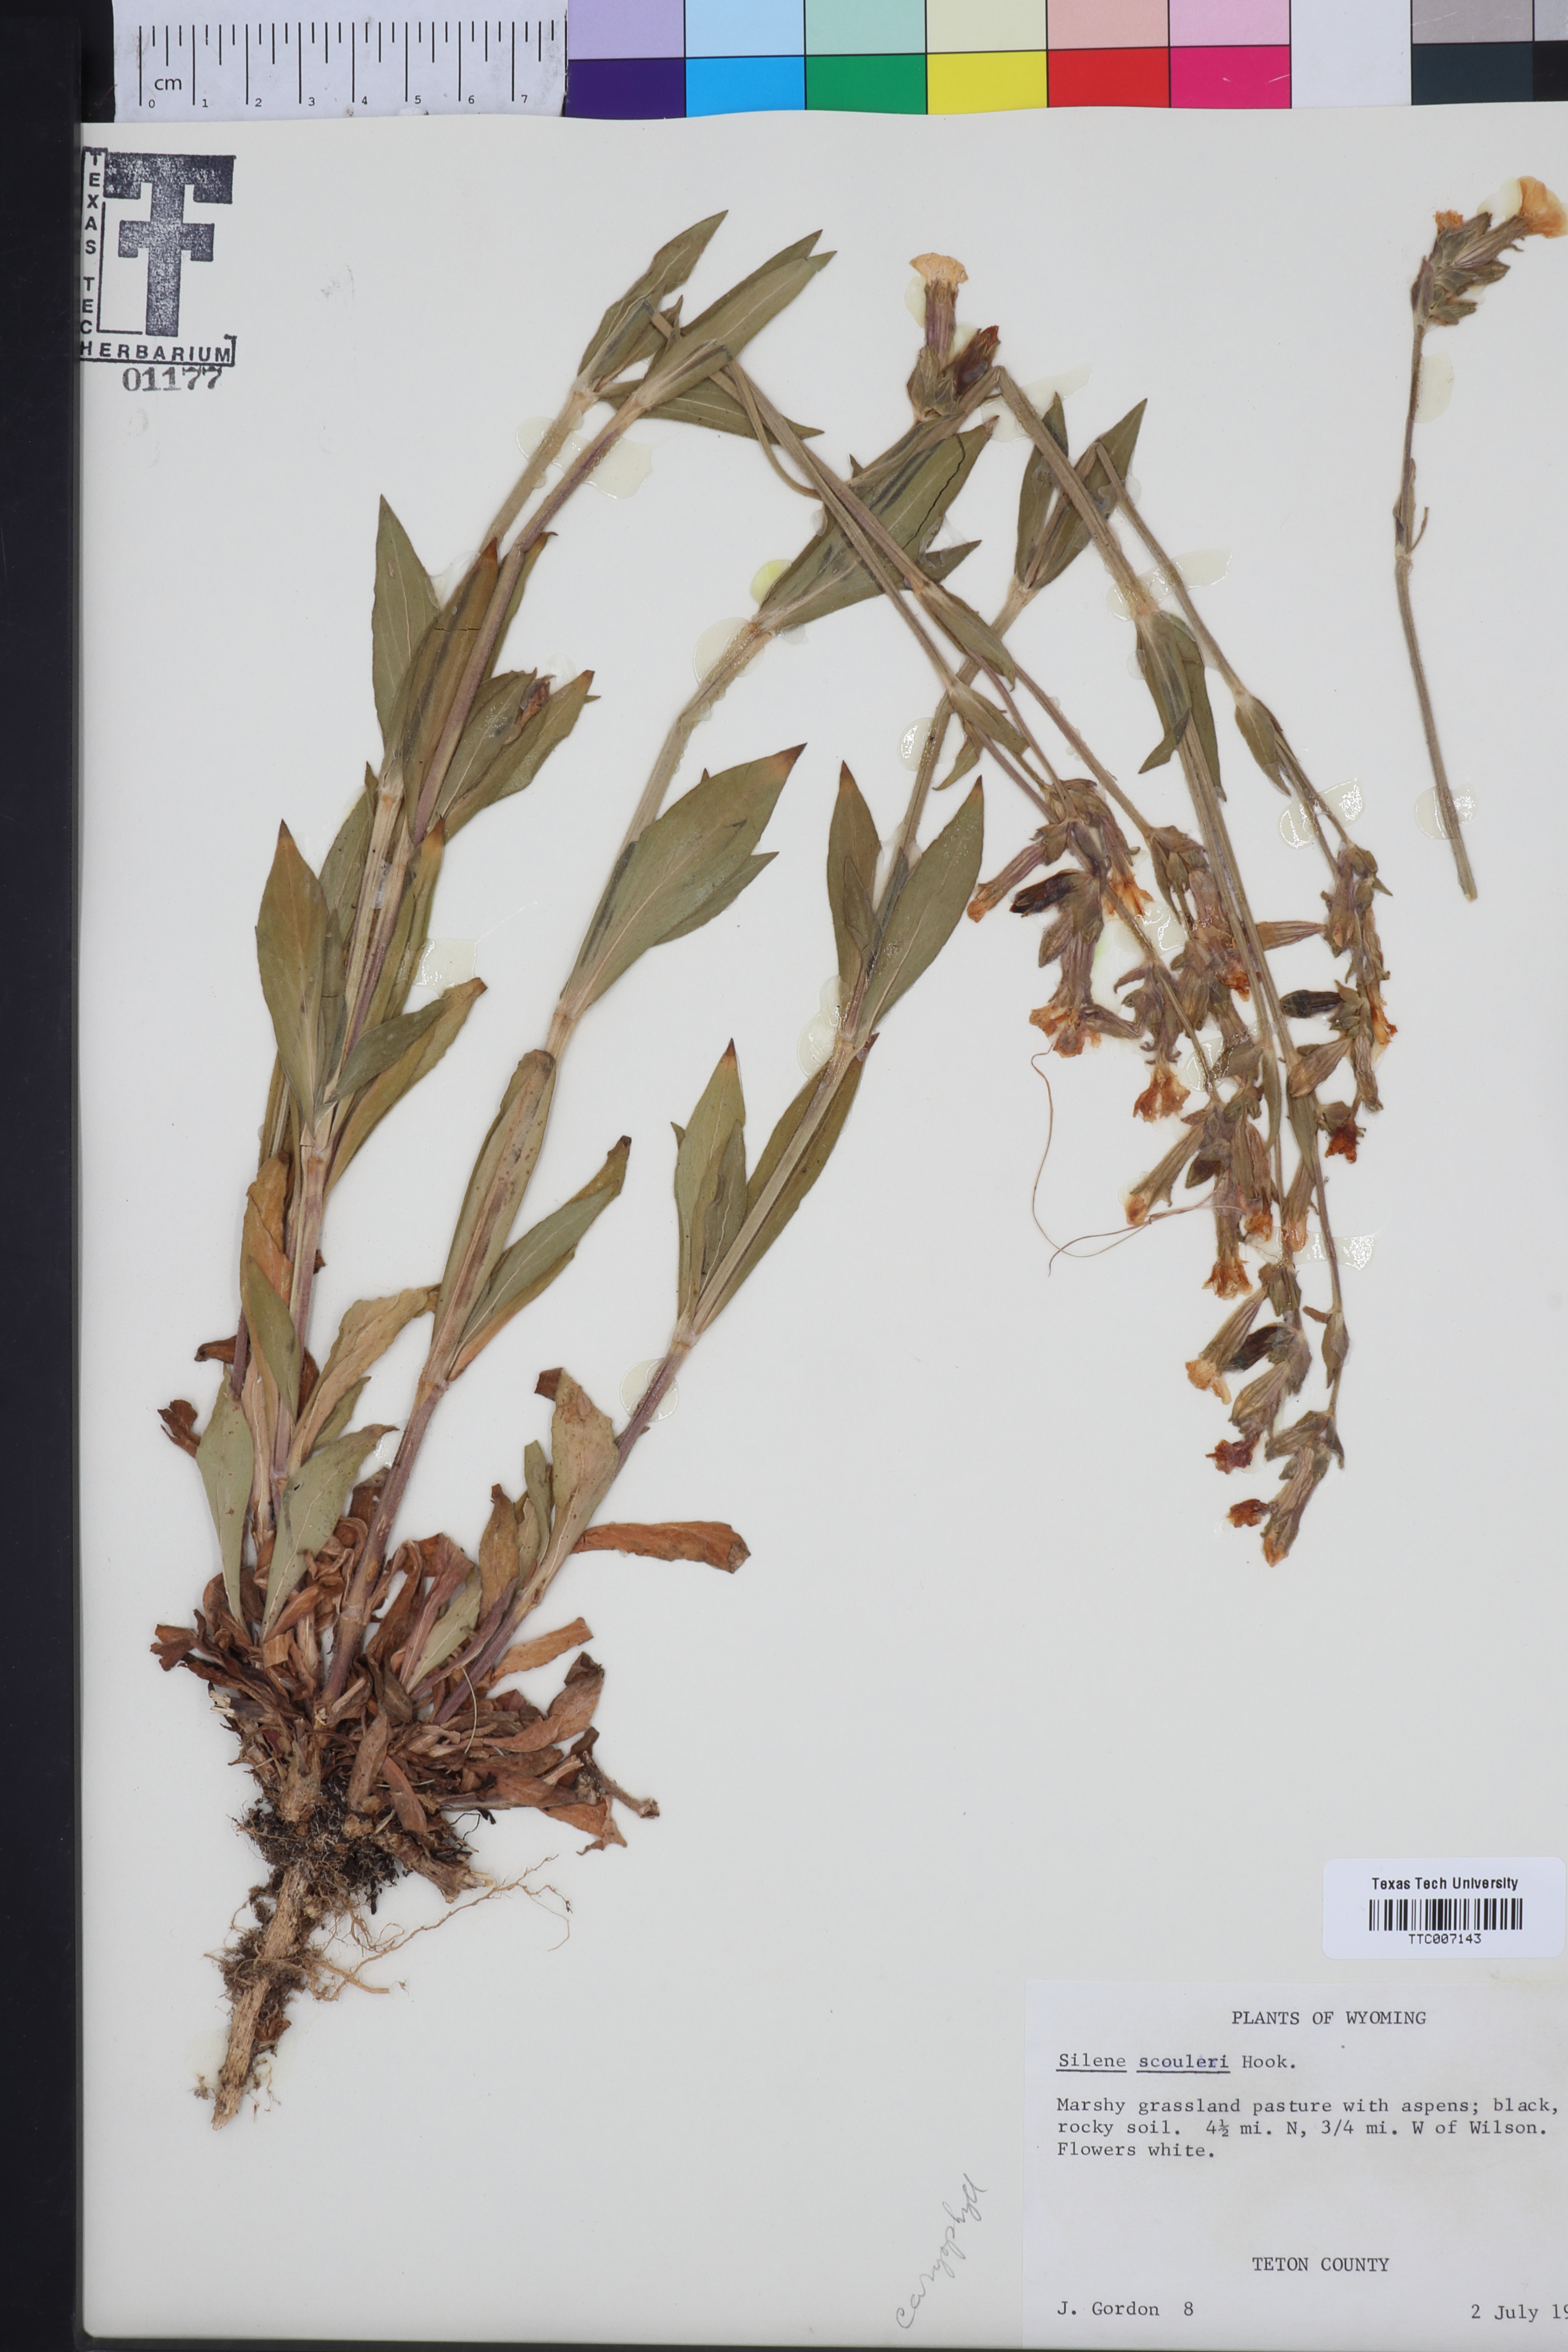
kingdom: Plantae
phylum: Tracheophyta
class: Magnoliopsida
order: Caryophyllales
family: Caryophyllaceae
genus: Silene
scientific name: Silene scouleri
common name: Scouler's campion
